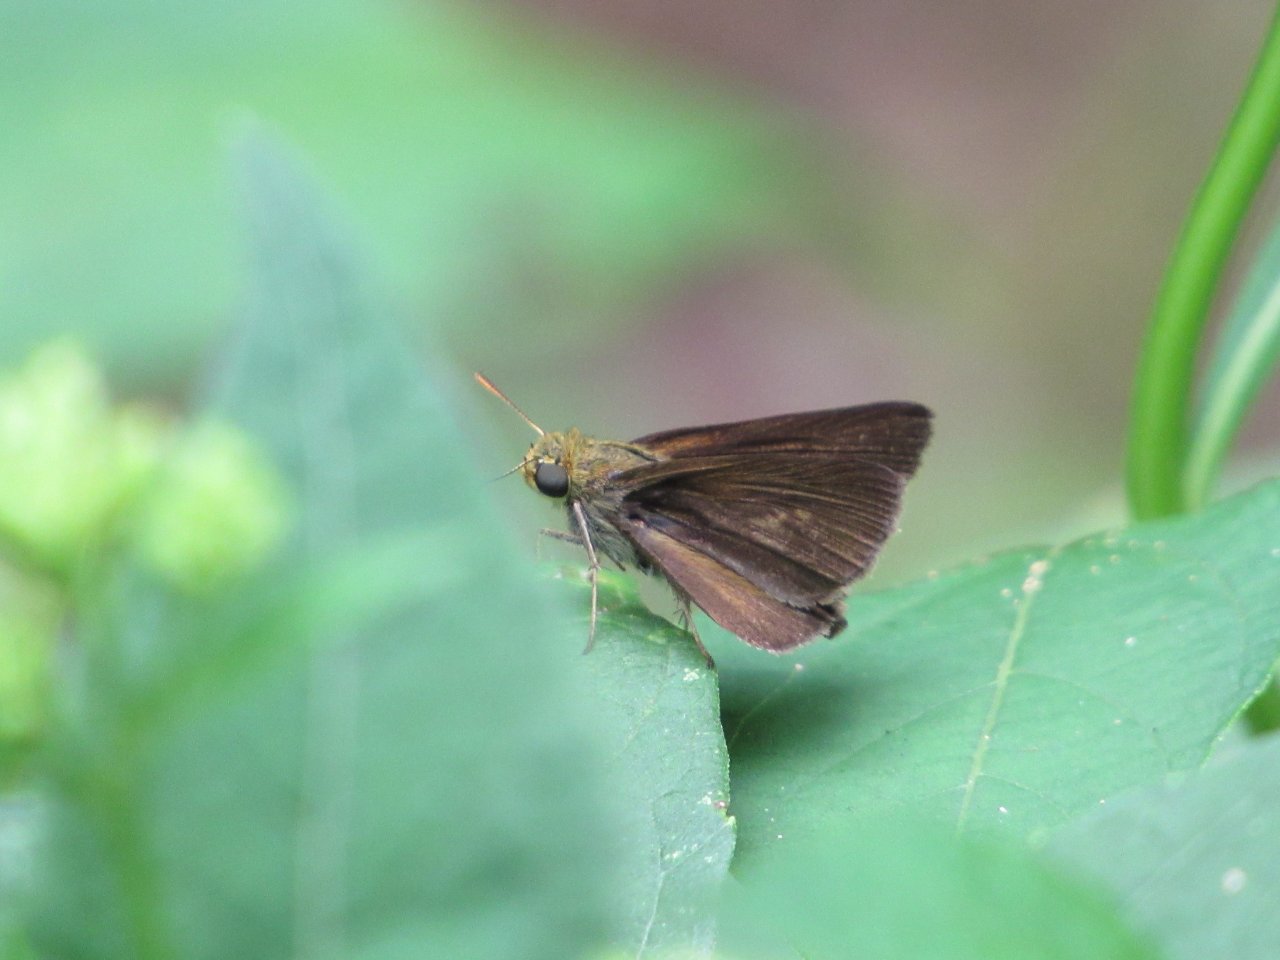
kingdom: Animalia
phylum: Arthropoda
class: Insecta
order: Lepidoptera
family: Hesperiidae
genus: Euphyes
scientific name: Euphyes vestris
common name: Dun Skipper
